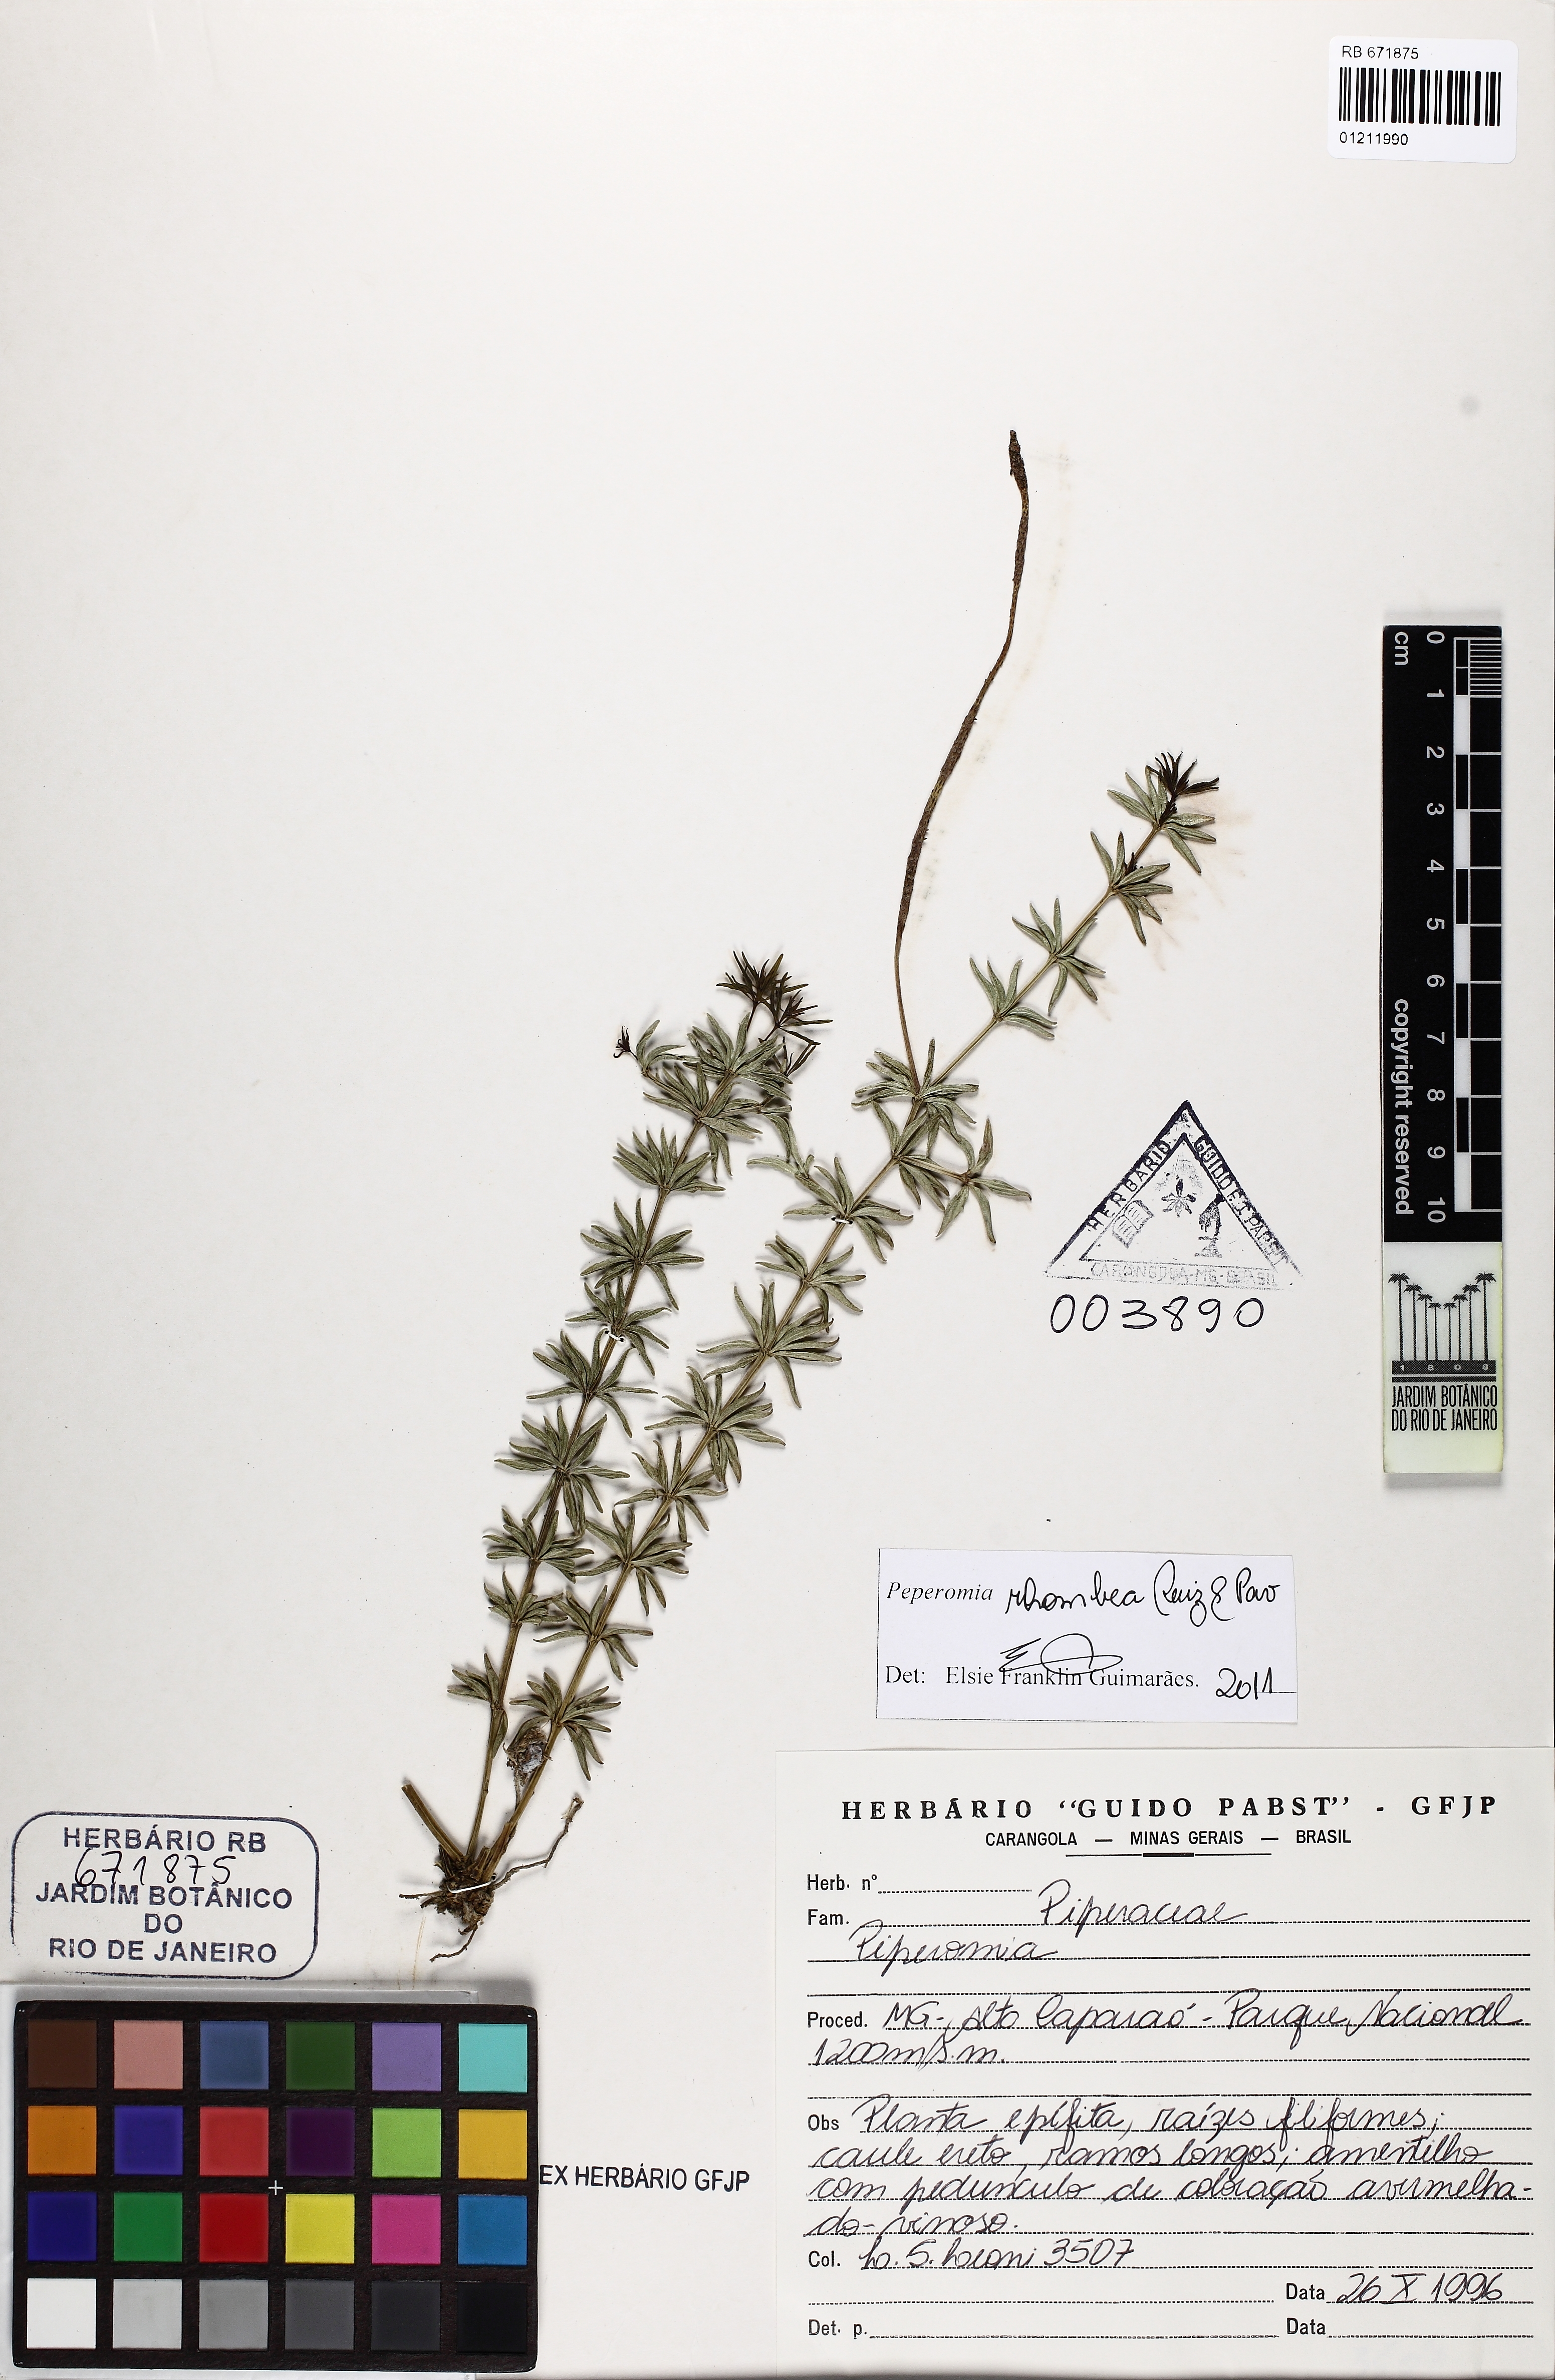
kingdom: Plantae
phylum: Tracheophyta
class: Magnoliopsida
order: Piperales
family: Piperaceae
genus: Peperomia
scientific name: Peperomia rhombea
